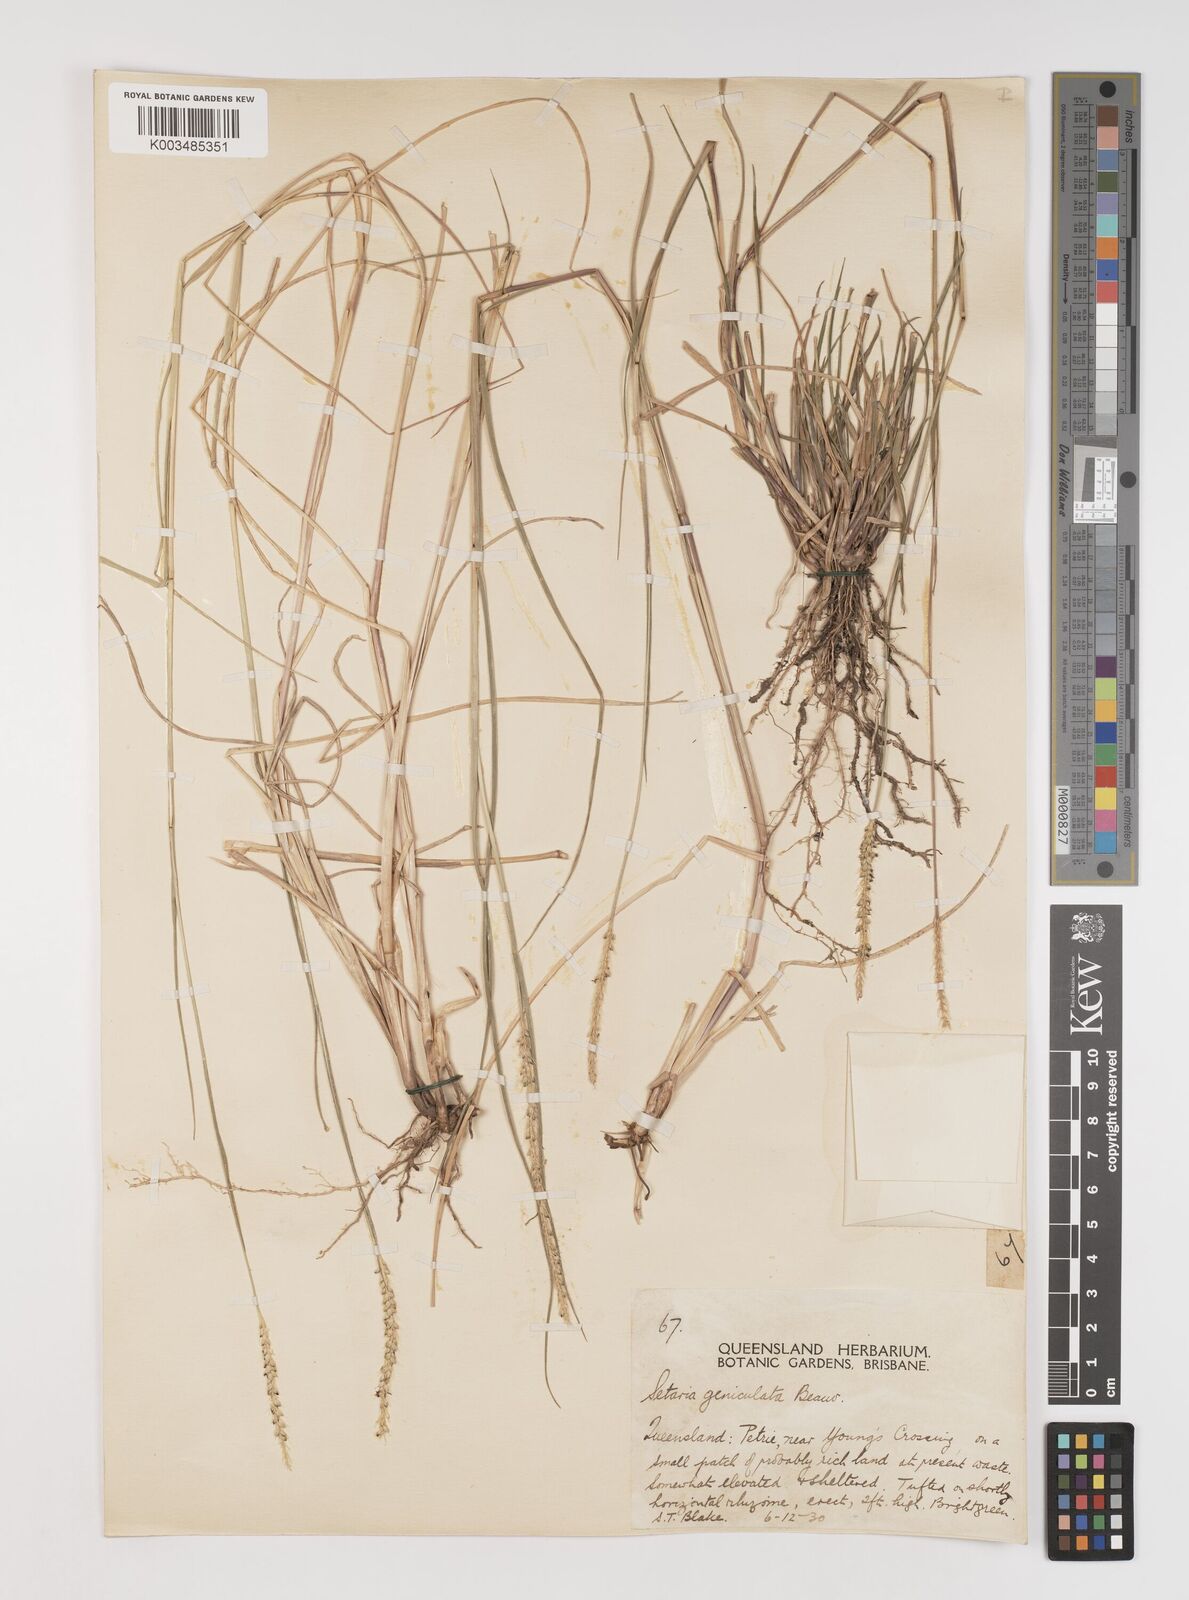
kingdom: Plantae
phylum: Tracheophyta
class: Liliopsida
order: Poales
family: Poaceae
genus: Setaria
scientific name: Setaria parviflora
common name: Knotroot bristle-grass
